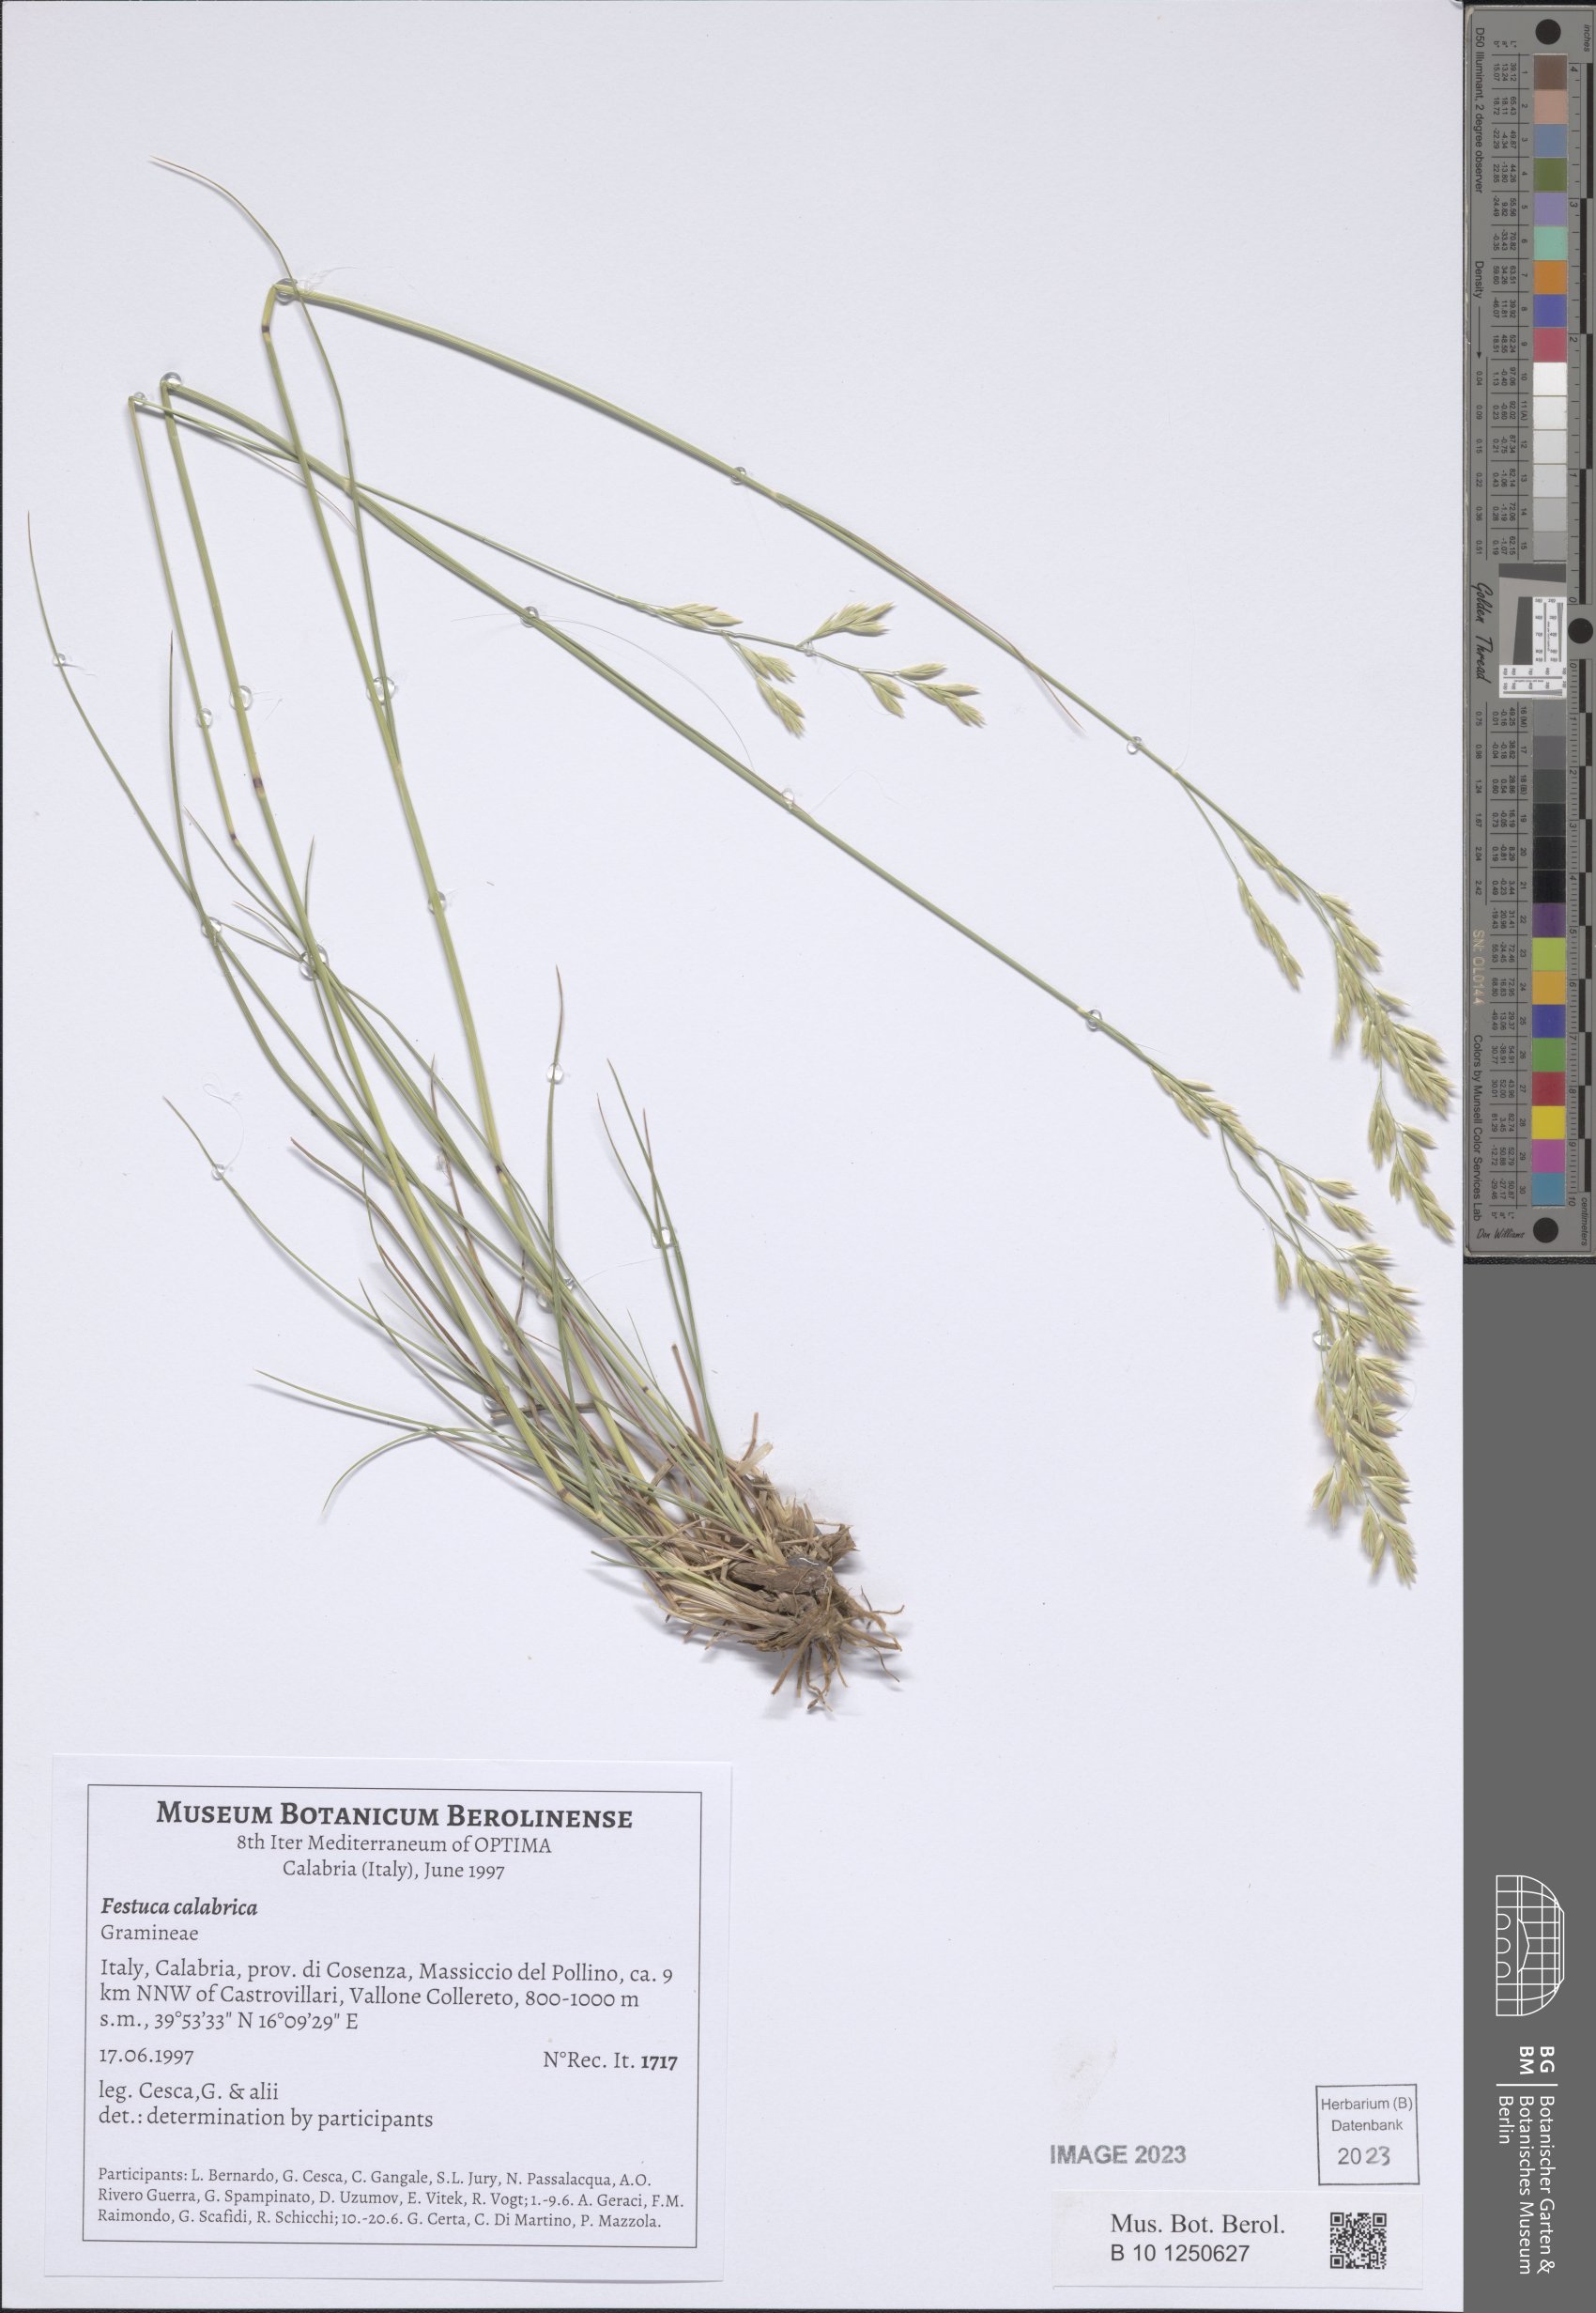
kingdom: Plantae
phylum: Tracheophyta
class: Liliopsida
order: Poales
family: Poaceae
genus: Festuca
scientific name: Festuca calabrica
